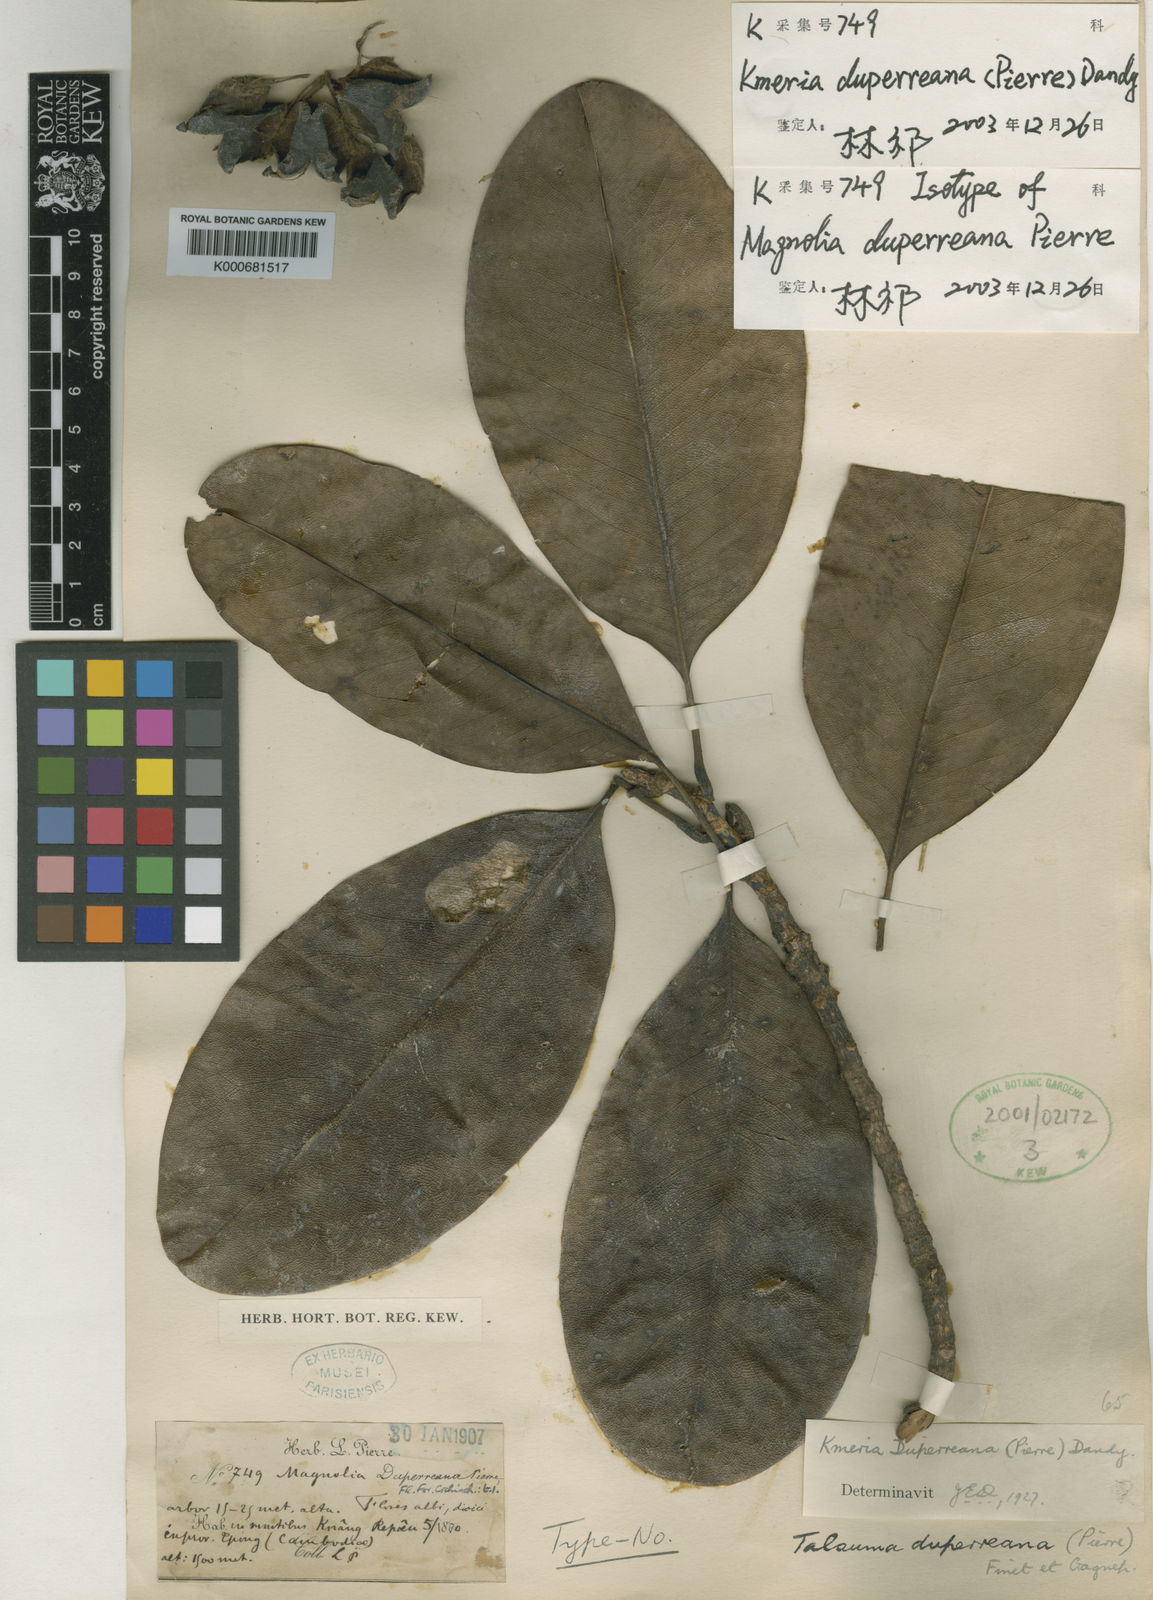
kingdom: Plantae
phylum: Tracheophyta
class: Magnoliopsida
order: Magnoliales
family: Magnoliaceae
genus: Magnolia
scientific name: Magnolia duperreana
